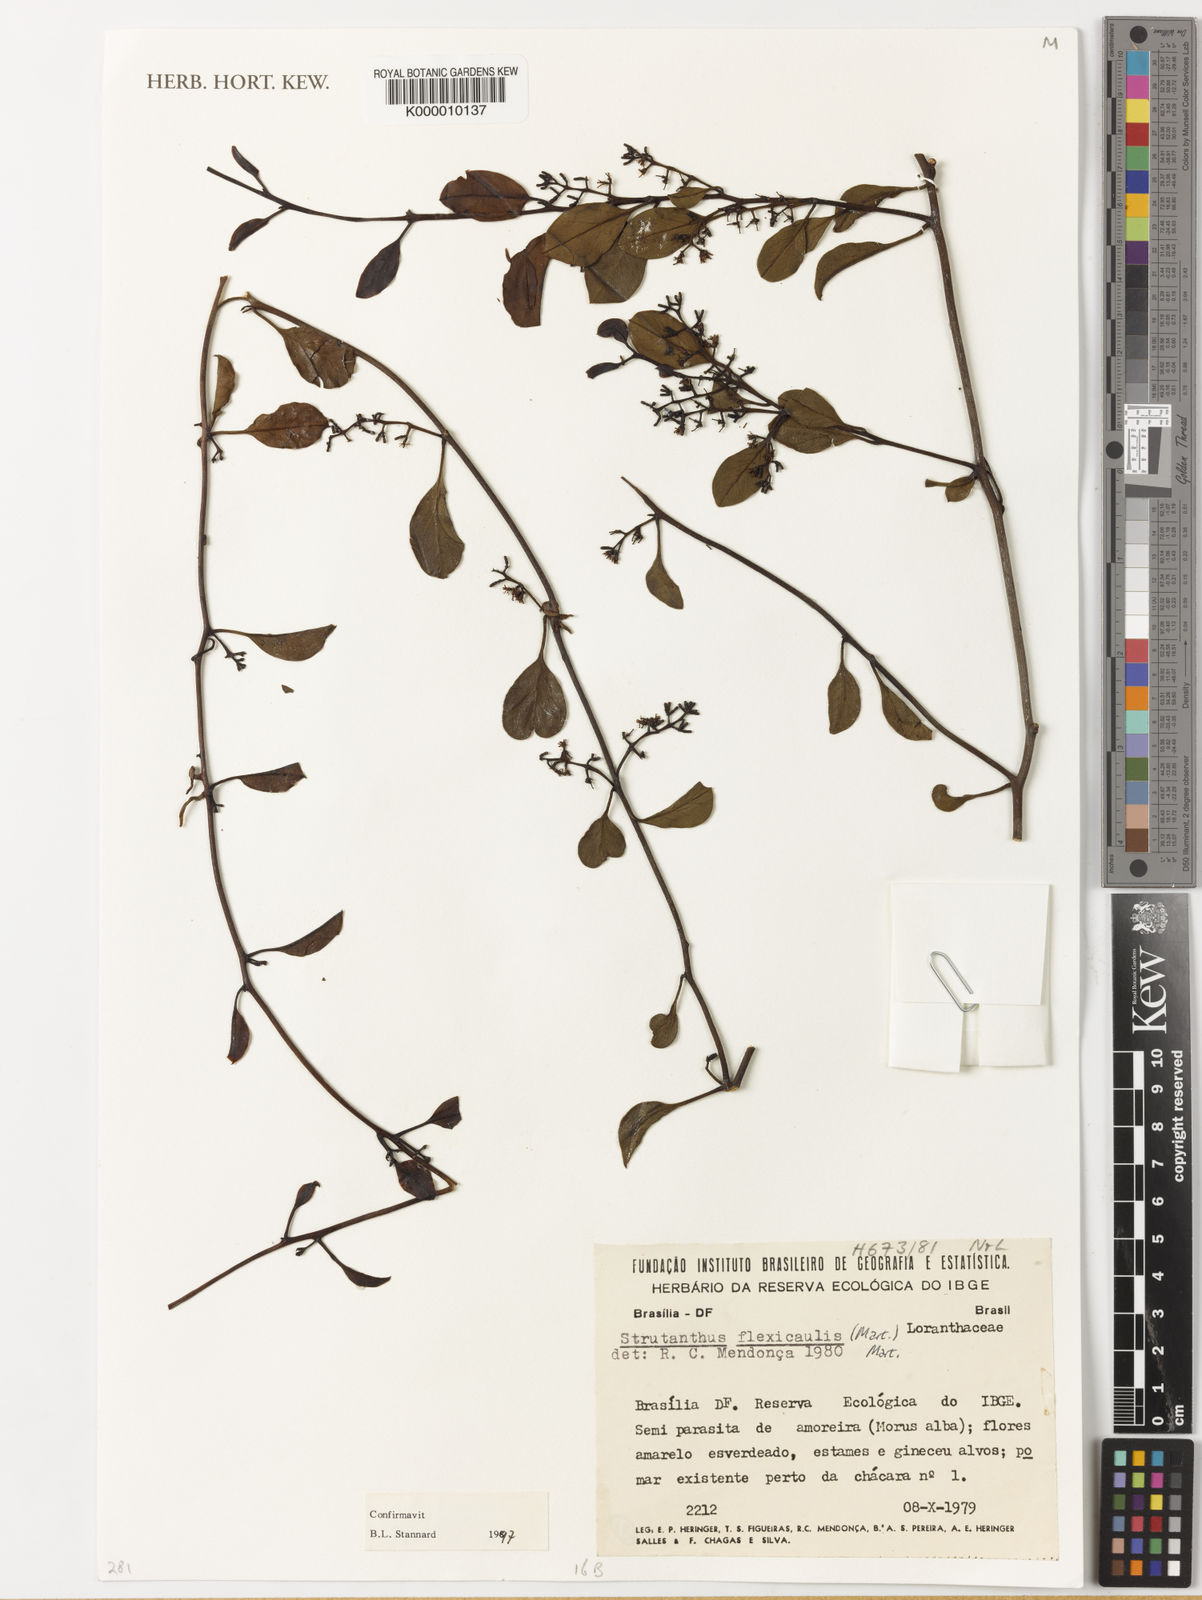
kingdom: Plantae
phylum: Tracheophyta
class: Magnoliopsida
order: Santalales
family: Loranthaceae
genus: Struthanthus
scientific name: Struthanthus flexicaulis
